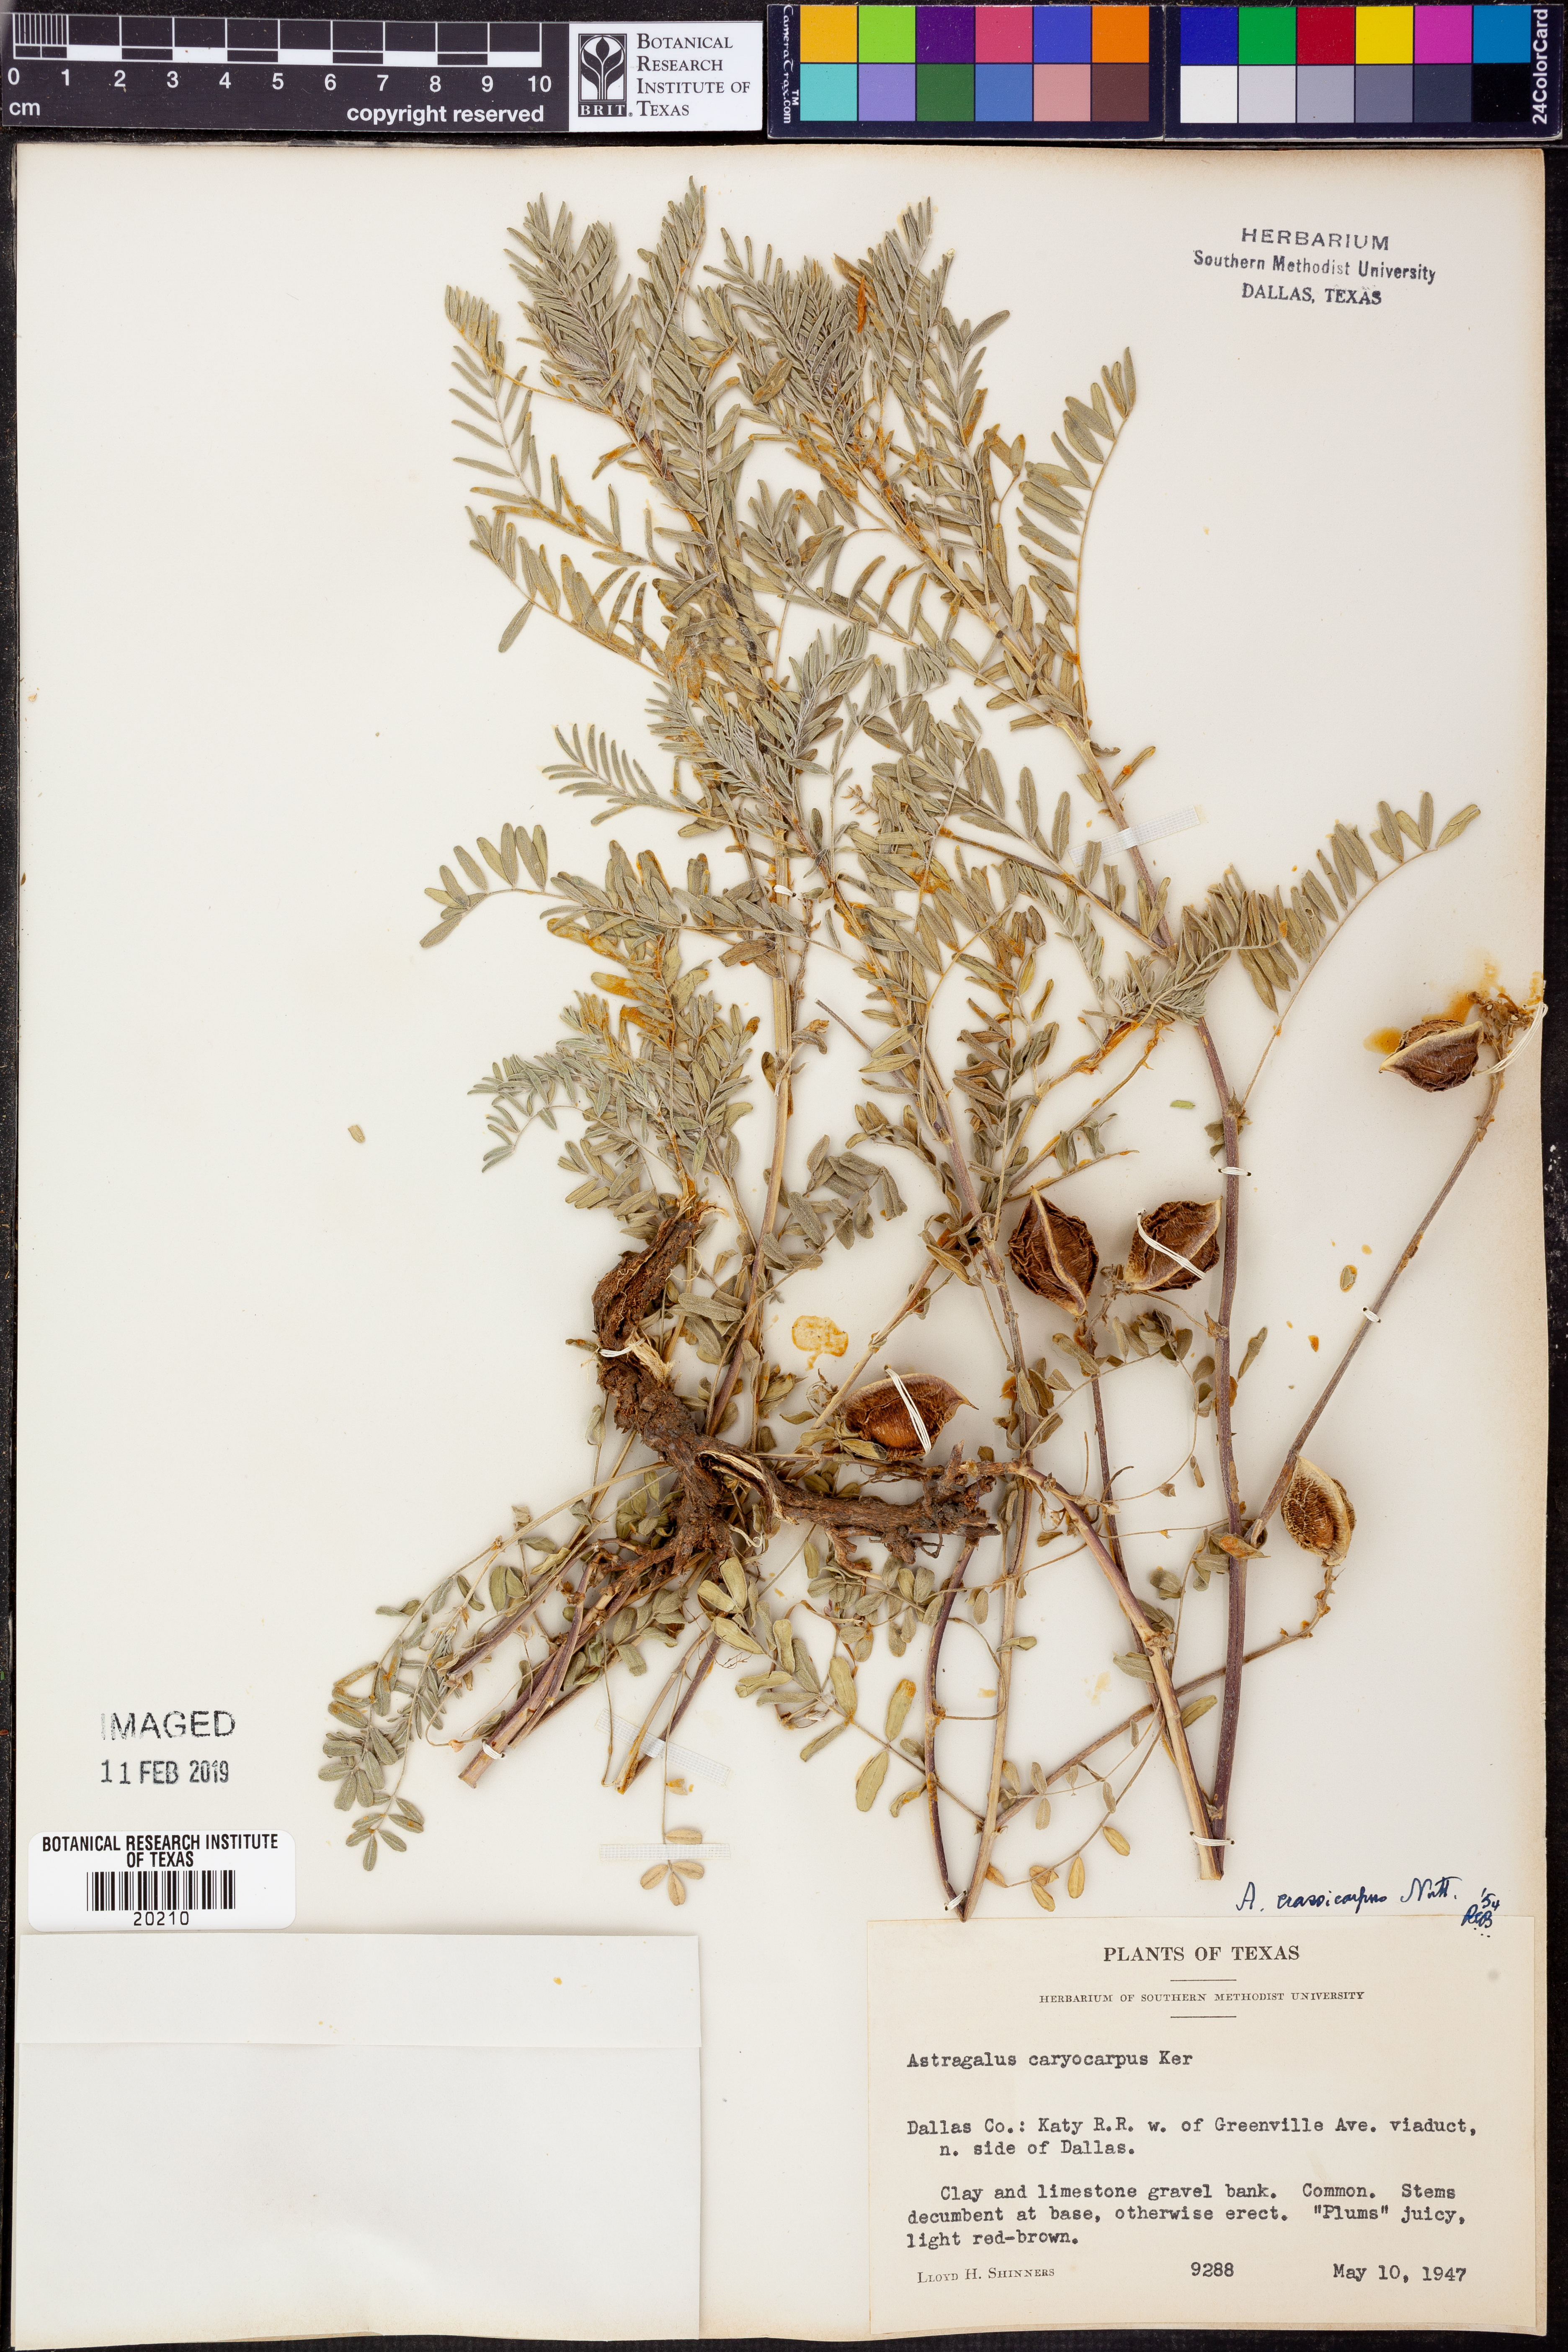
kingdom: Plantae
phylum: Tracheophyta
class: Magnoliopsida
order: Fabales
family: Fabaceae
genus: Astragalus
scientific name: Astragalus crassicarpus
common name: Ground-plum milk-vetch
